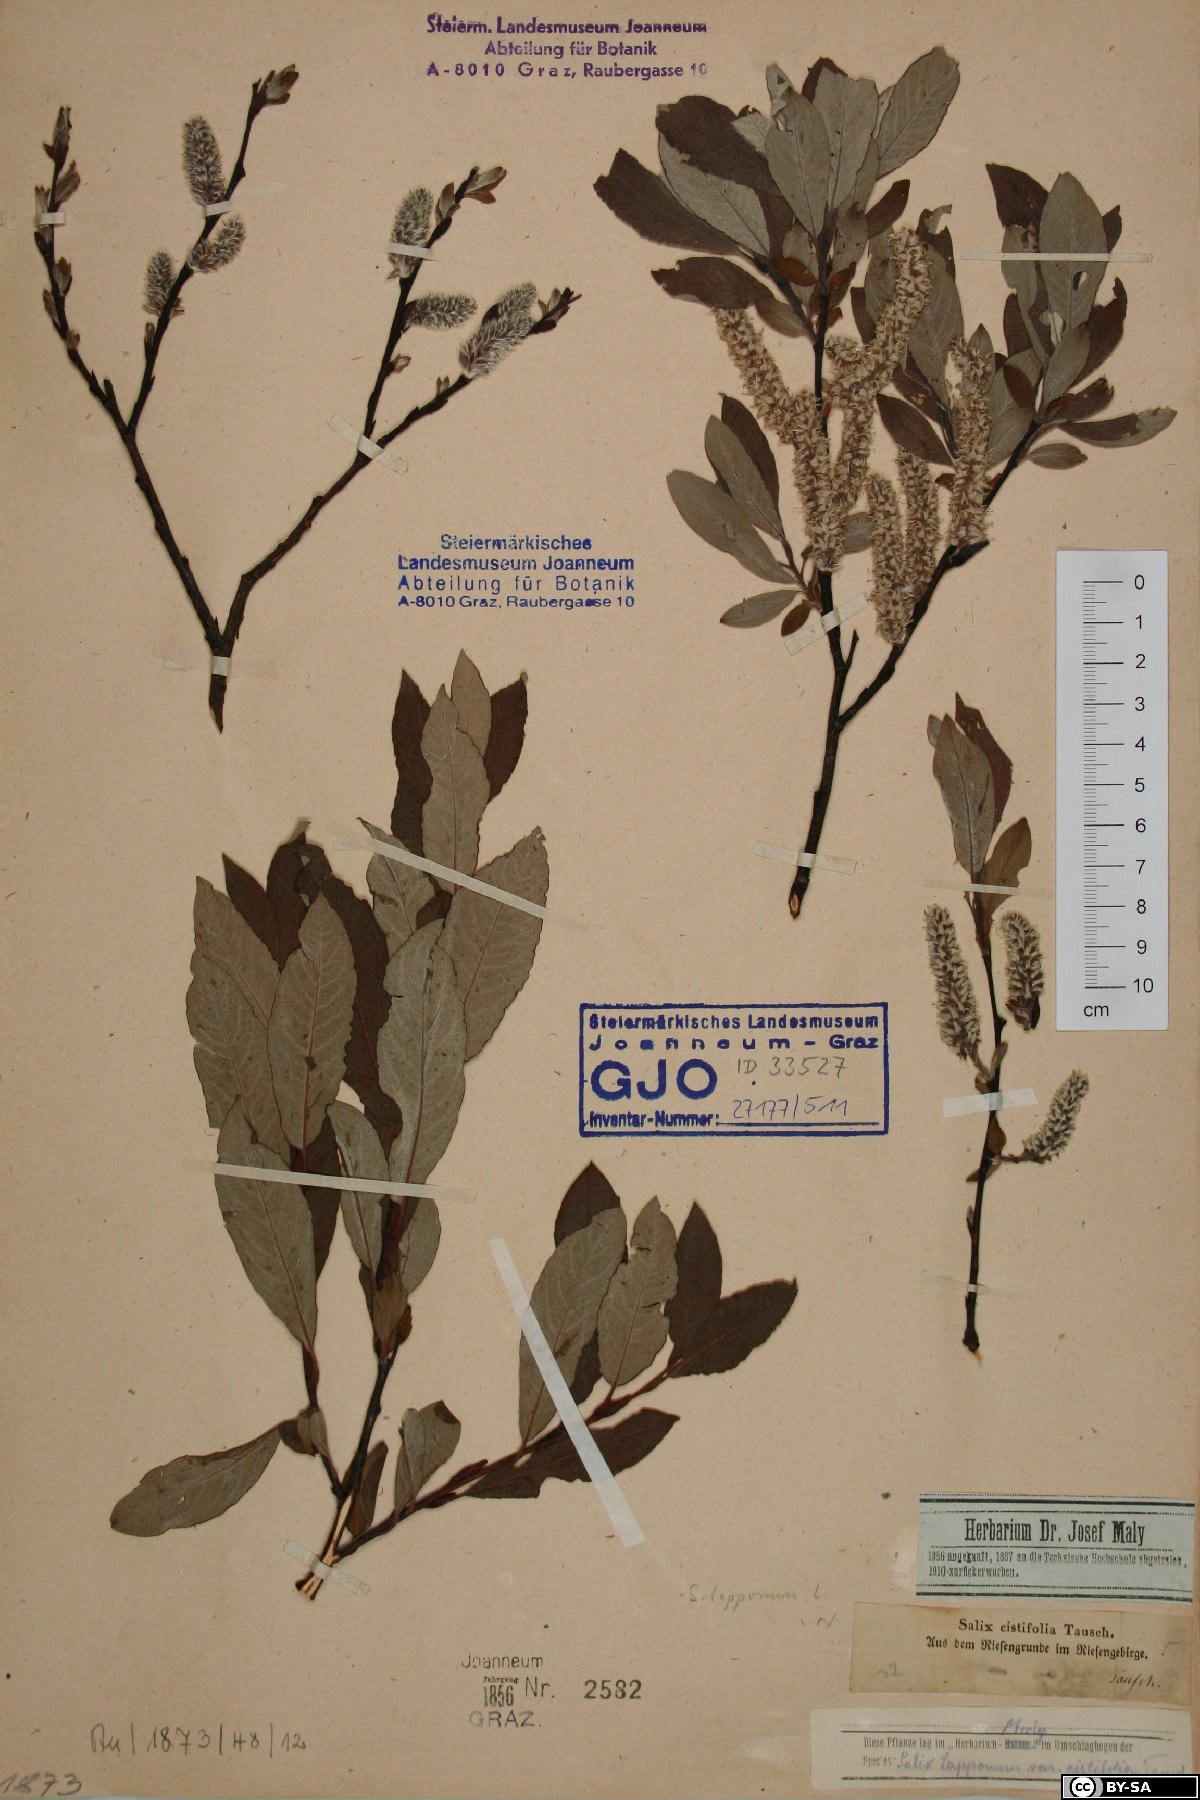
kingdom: Plantae
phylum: Tracheophyta
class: Magnoliopsida
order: Malpighiales
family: Salicaceae
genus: Salix
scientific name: Salix lapponum
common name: Downy willow
